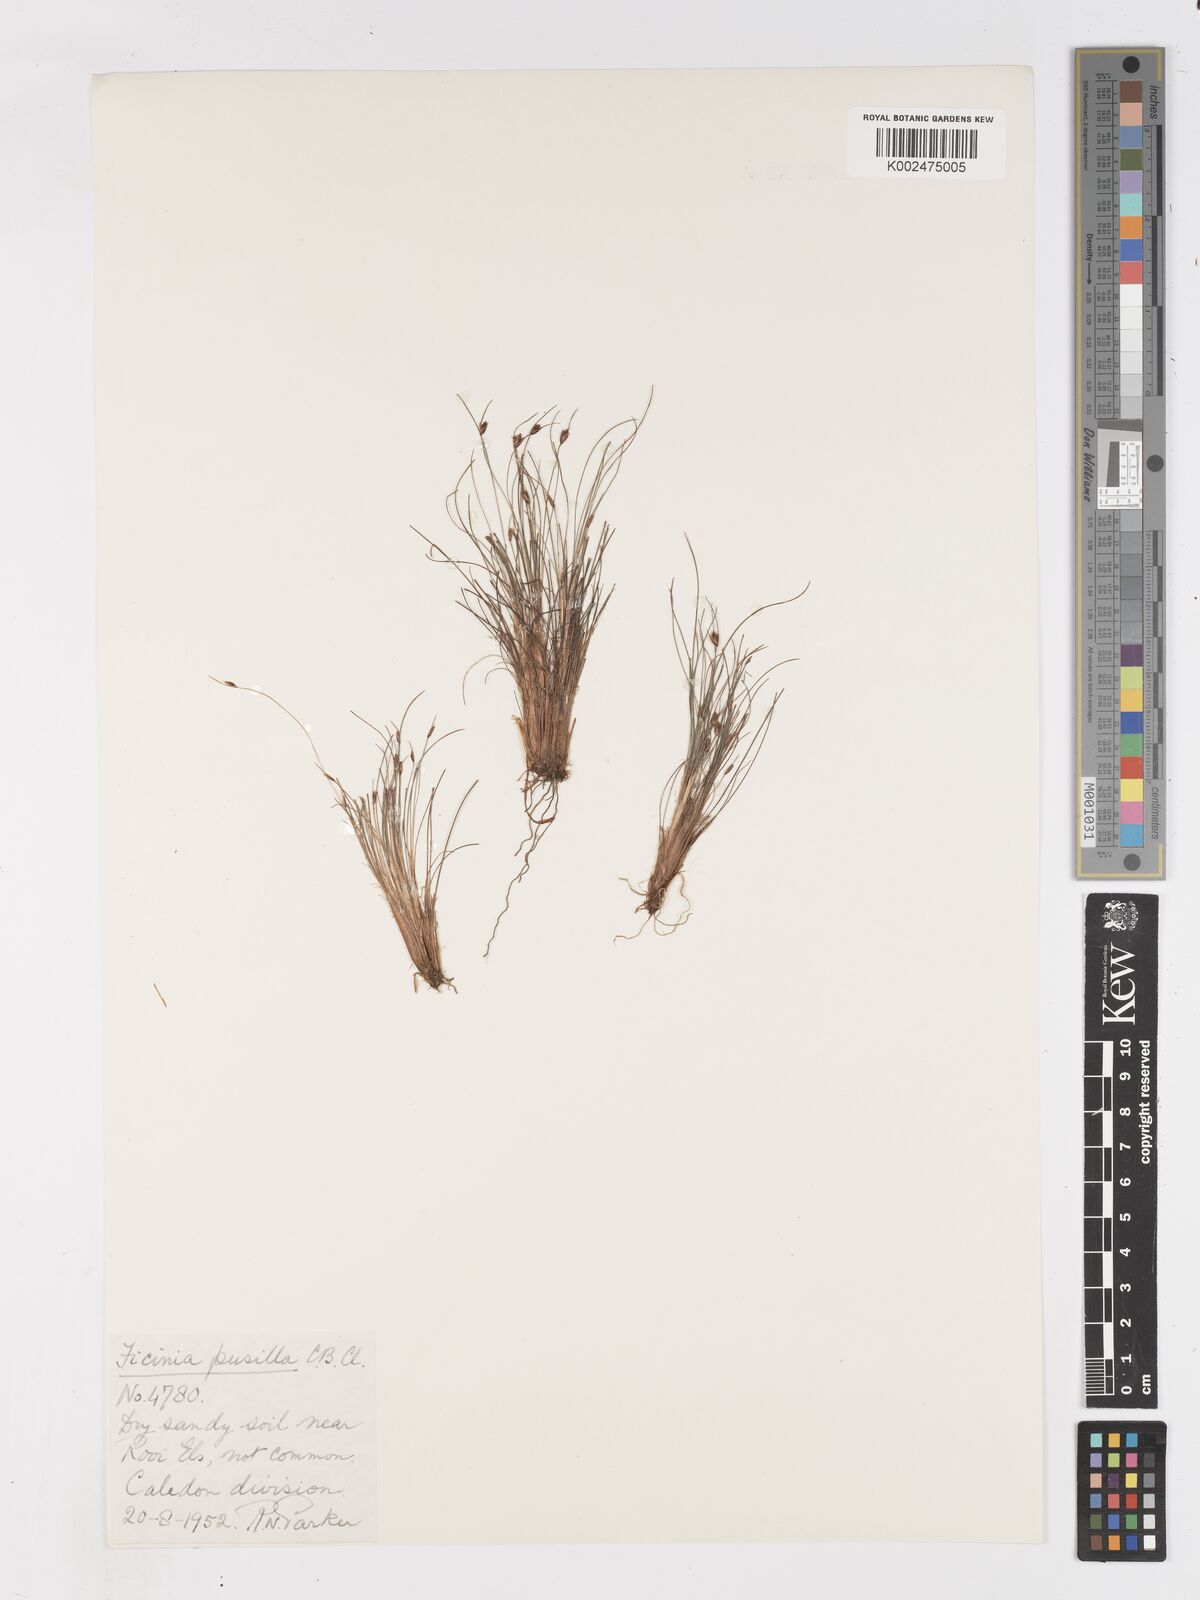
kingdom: Plantae
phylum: Tracheophyta
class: Liliopsida
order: Poales
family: Cyperaceae
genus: Ficinia
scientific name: Ficinia pusilla
